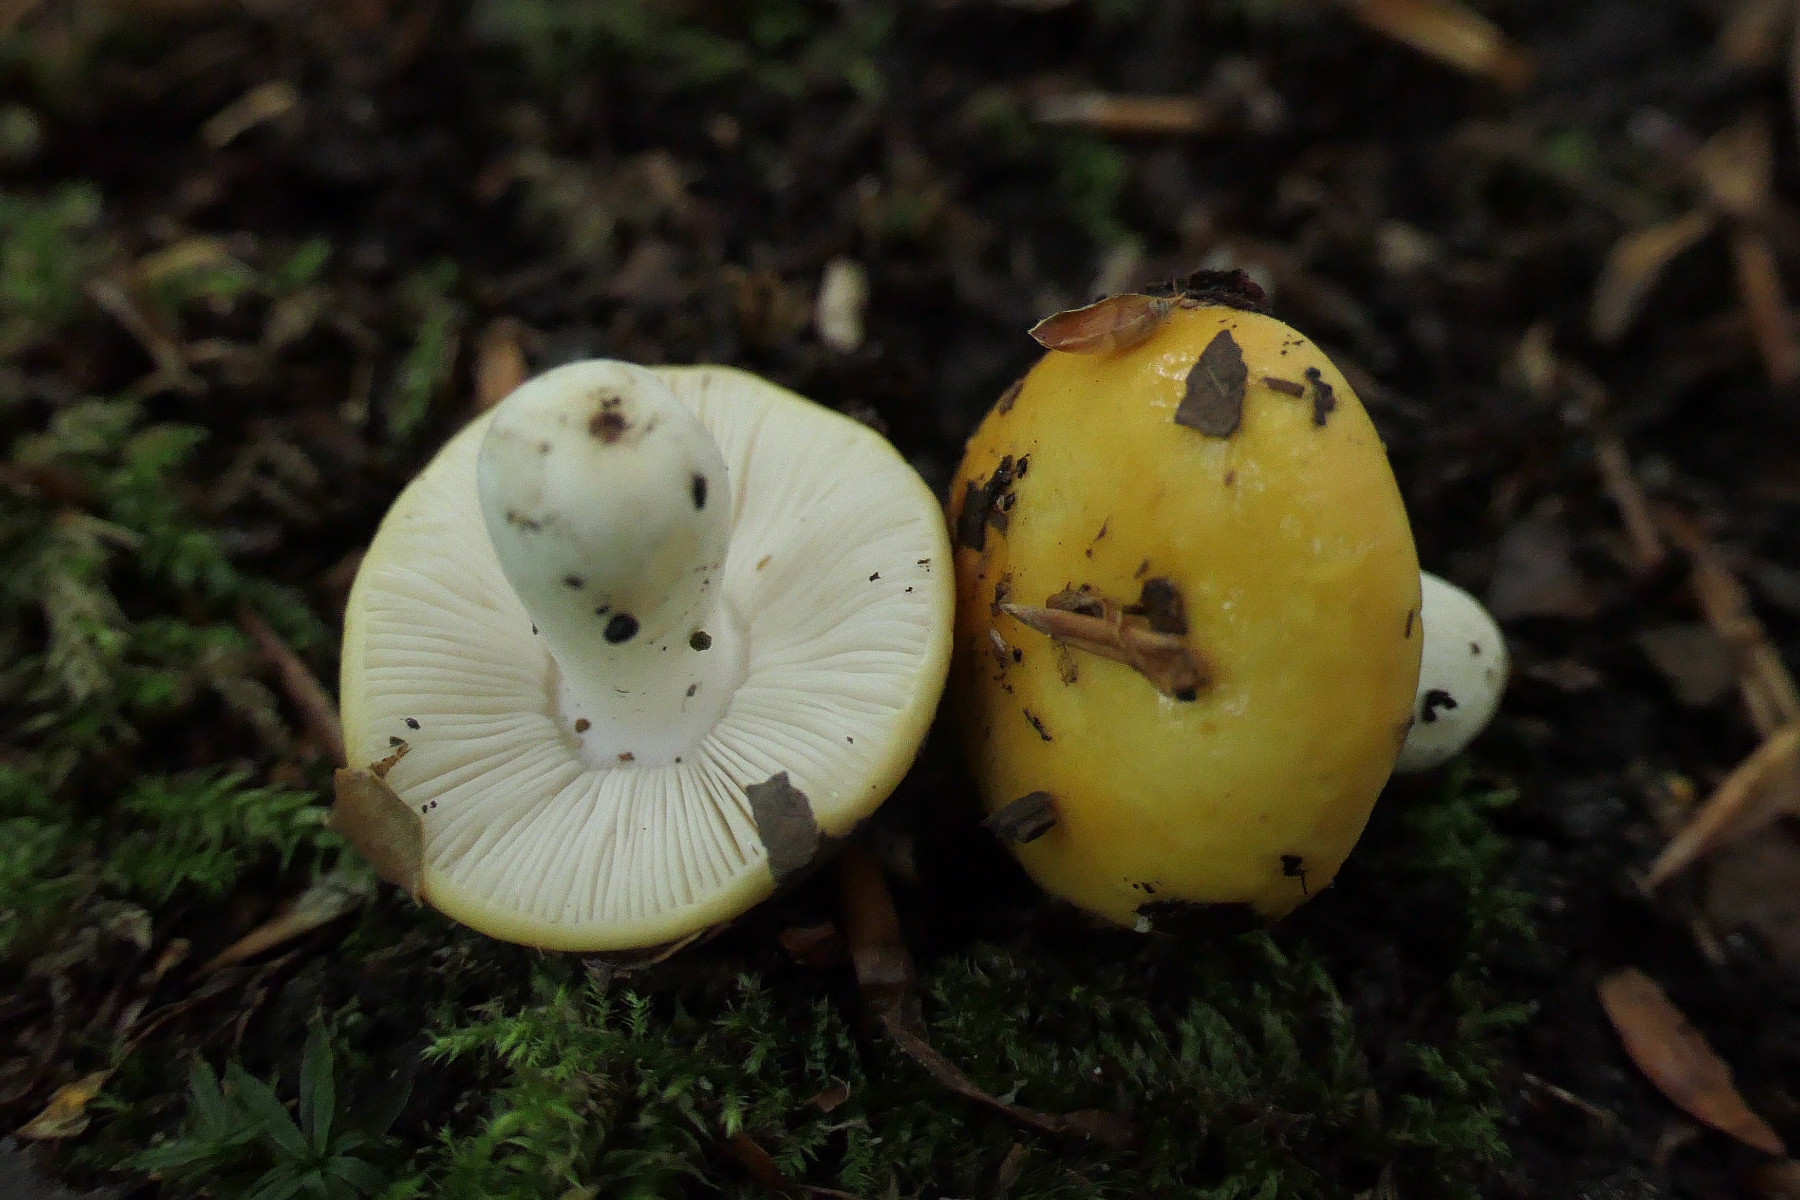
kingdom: Fungi
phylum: Basidiomycota
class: Agaricomycetes
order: Russulales
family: Russulaceae
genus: Russula
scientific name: Russula fragilis
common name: Fragile brittlegill
